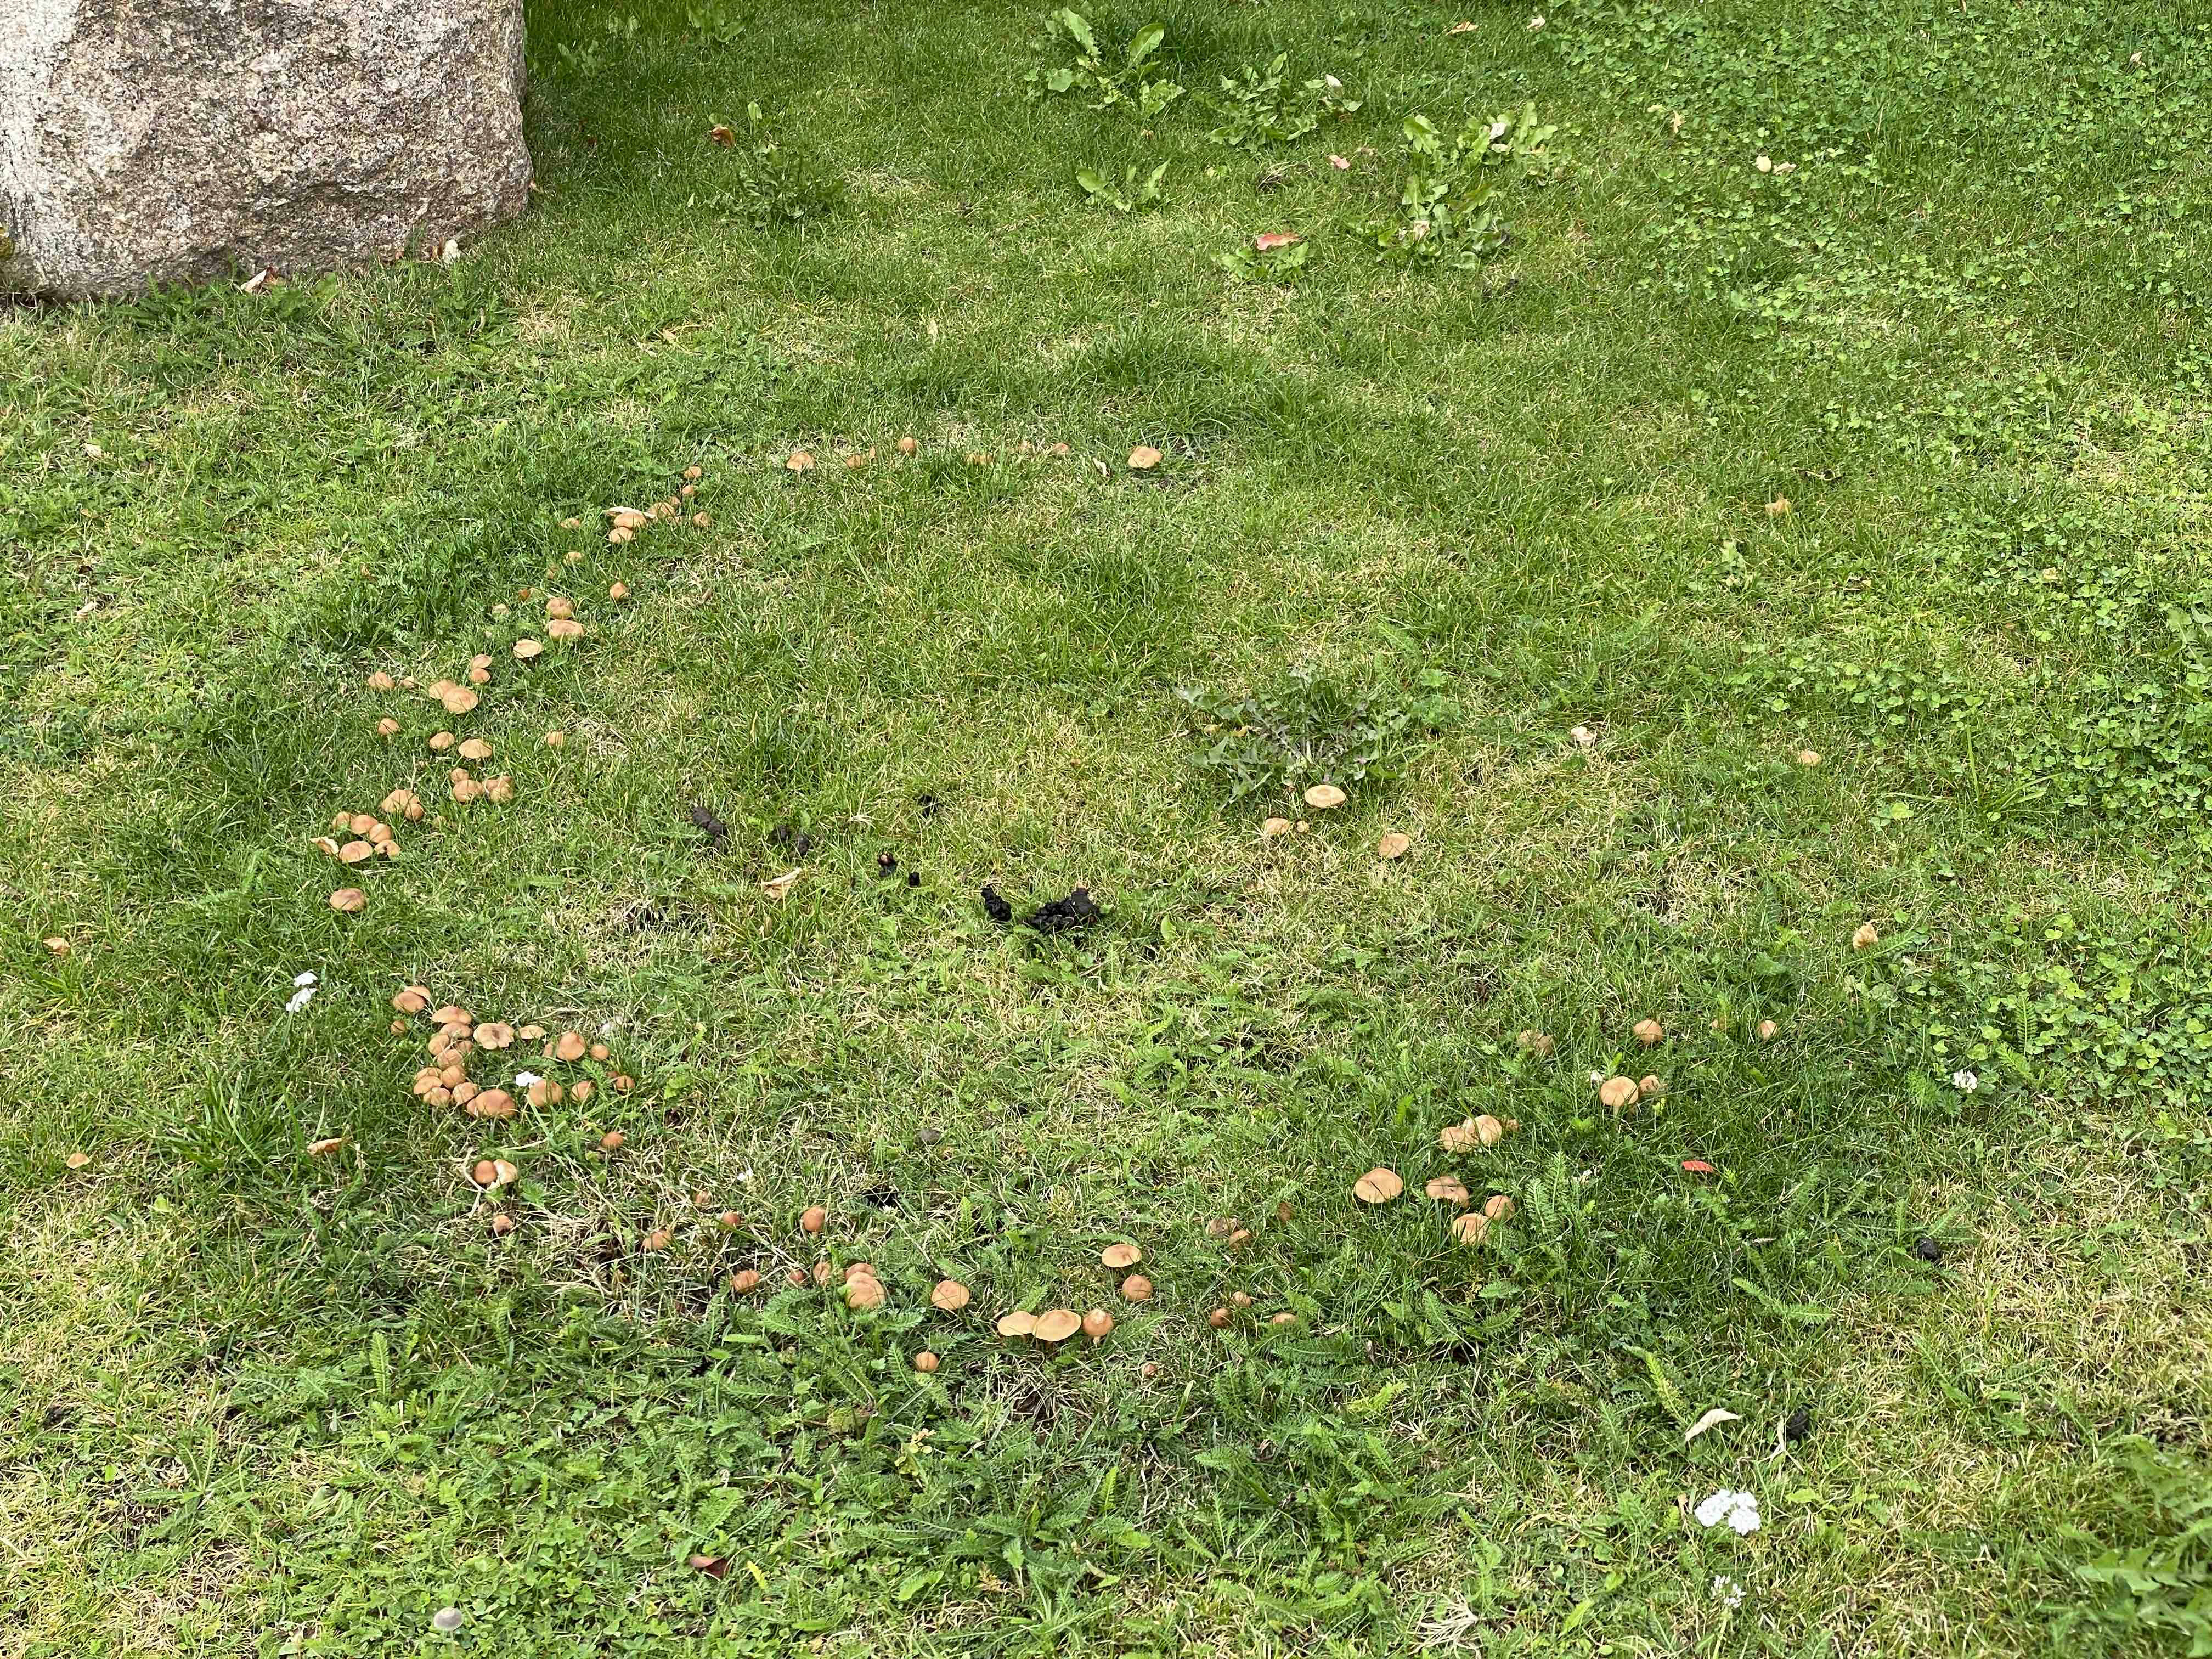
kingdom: Fungi
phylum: Basidiomycota
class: Agaricomycetes
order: Agaricales
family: Marasmiaceae
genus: Marasmius
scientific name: Marasmius oreades
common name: elledans-bruskhat
